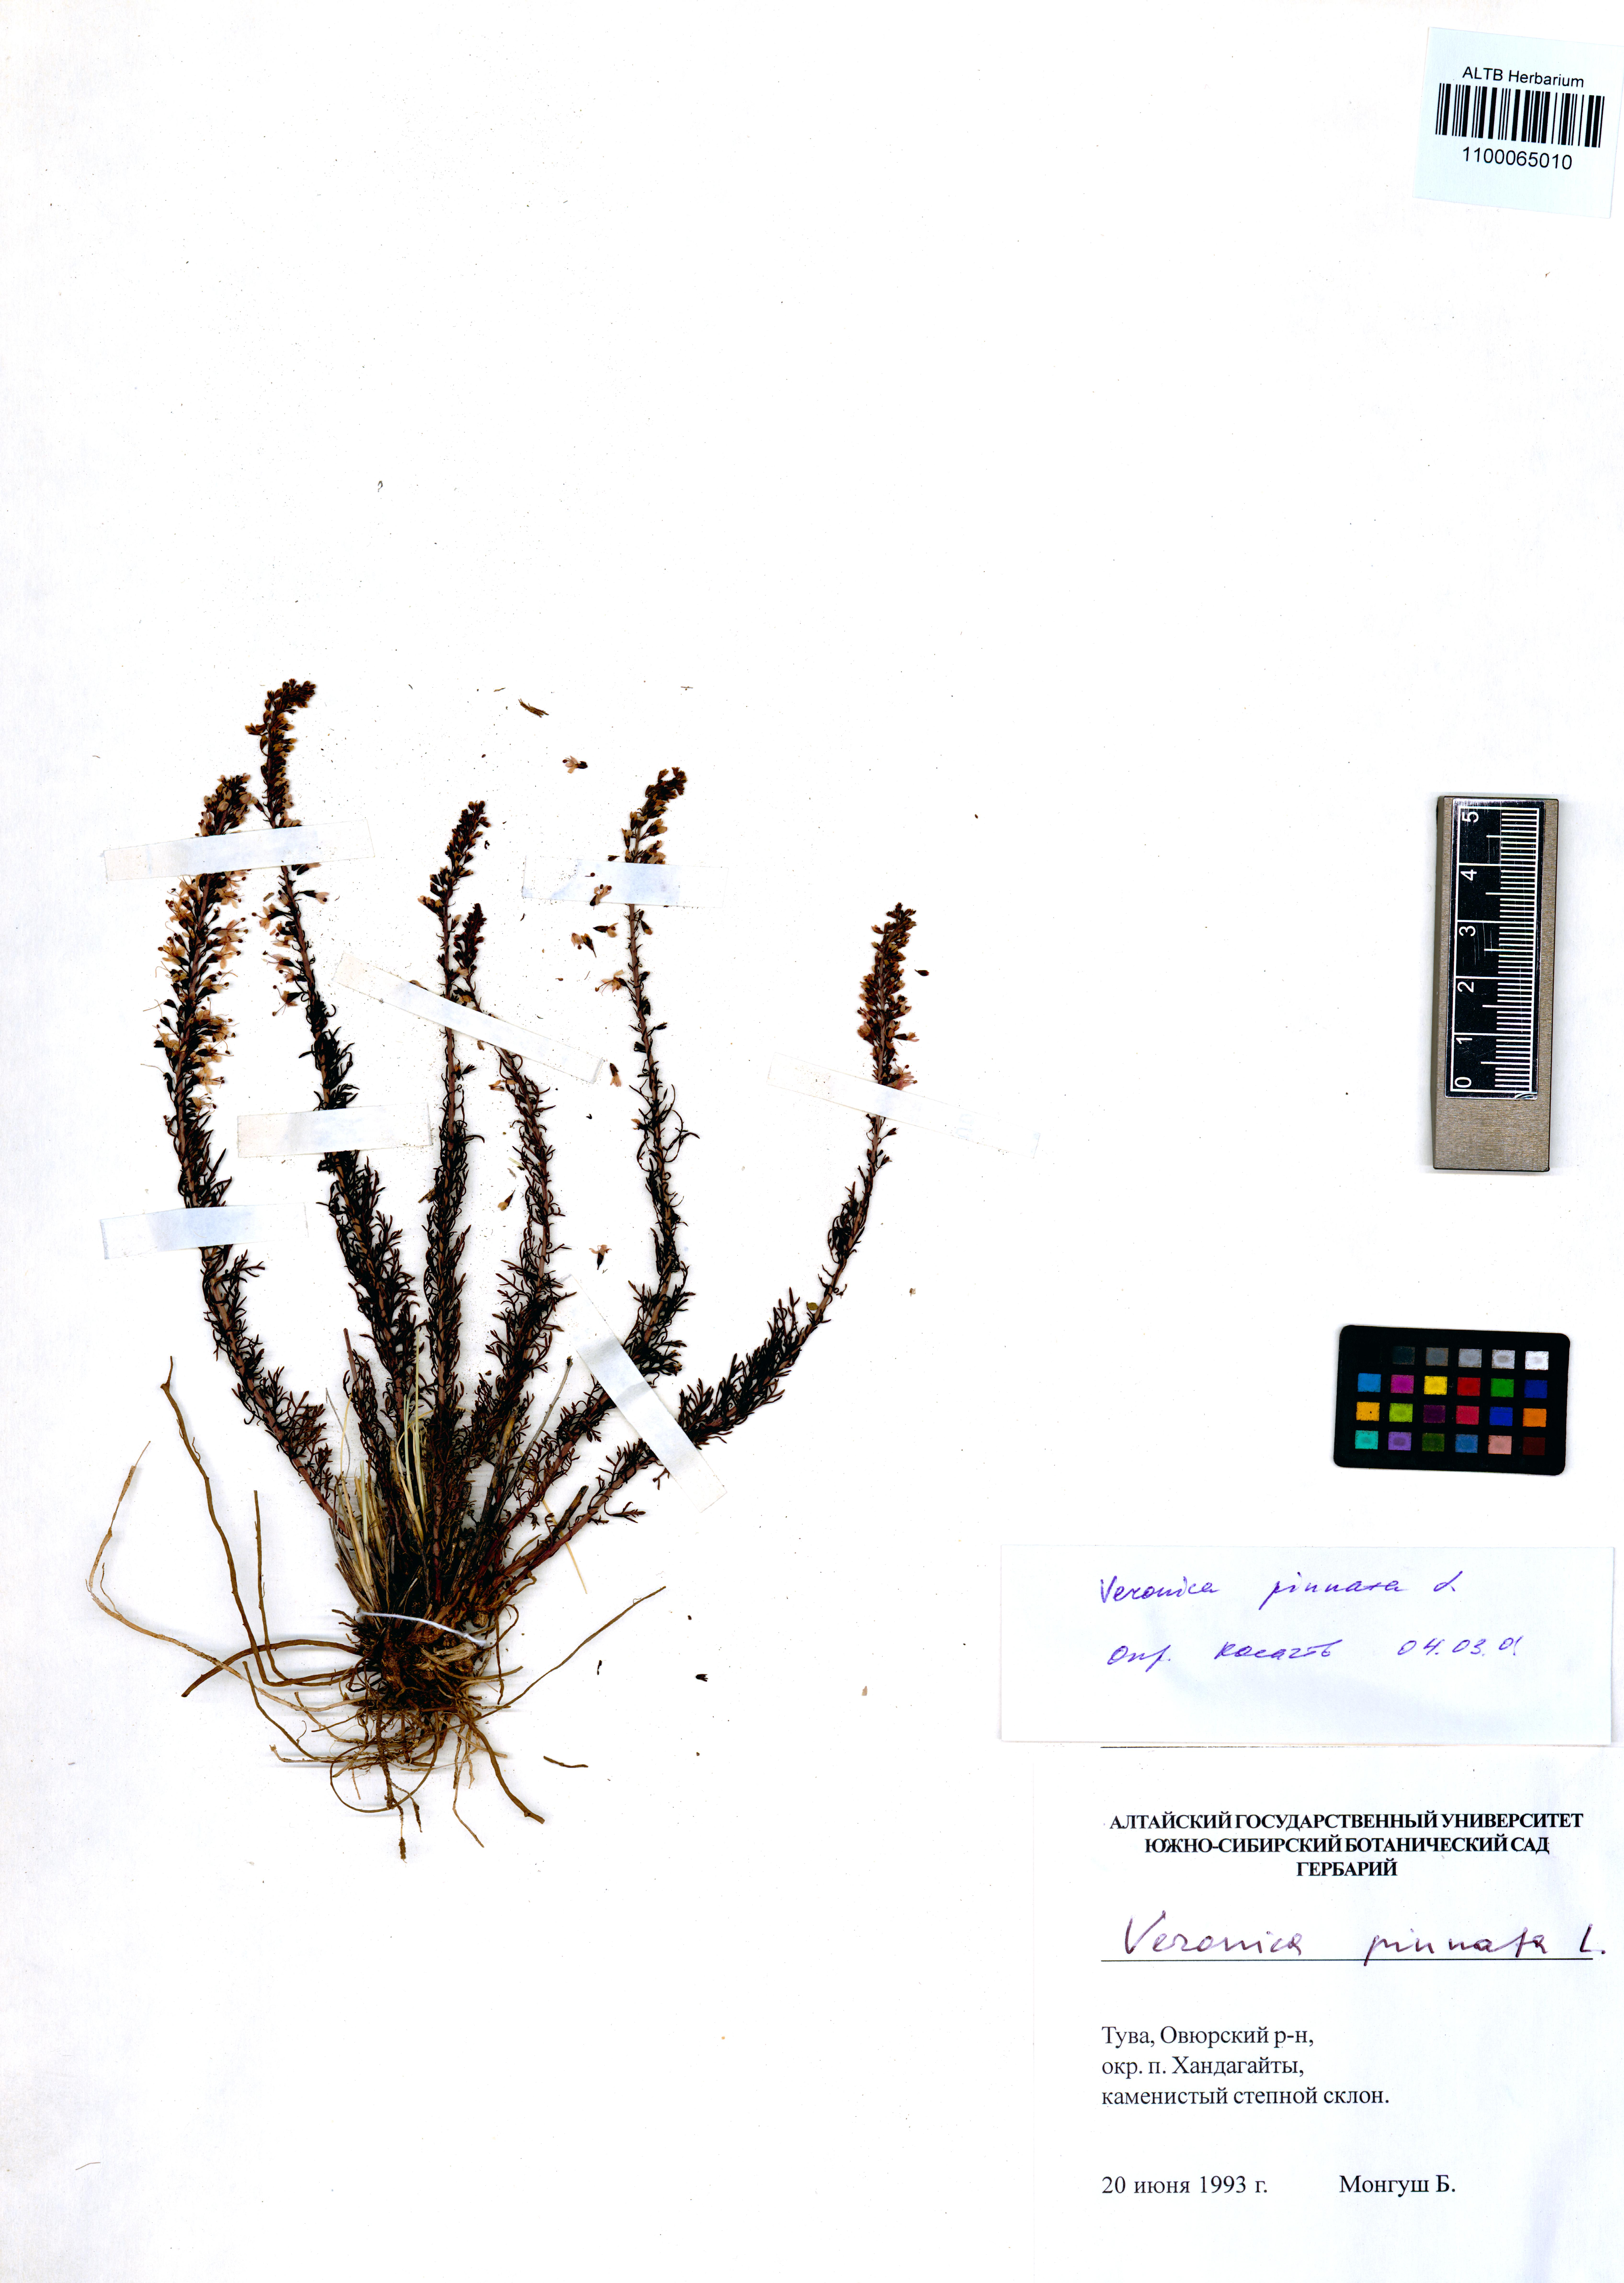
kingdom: Plantae
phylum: Tracheophyta
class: Magnoliopsida
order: Lamiales
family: Plantaginaceae
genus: Veronica
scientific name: Veronica pinnata
